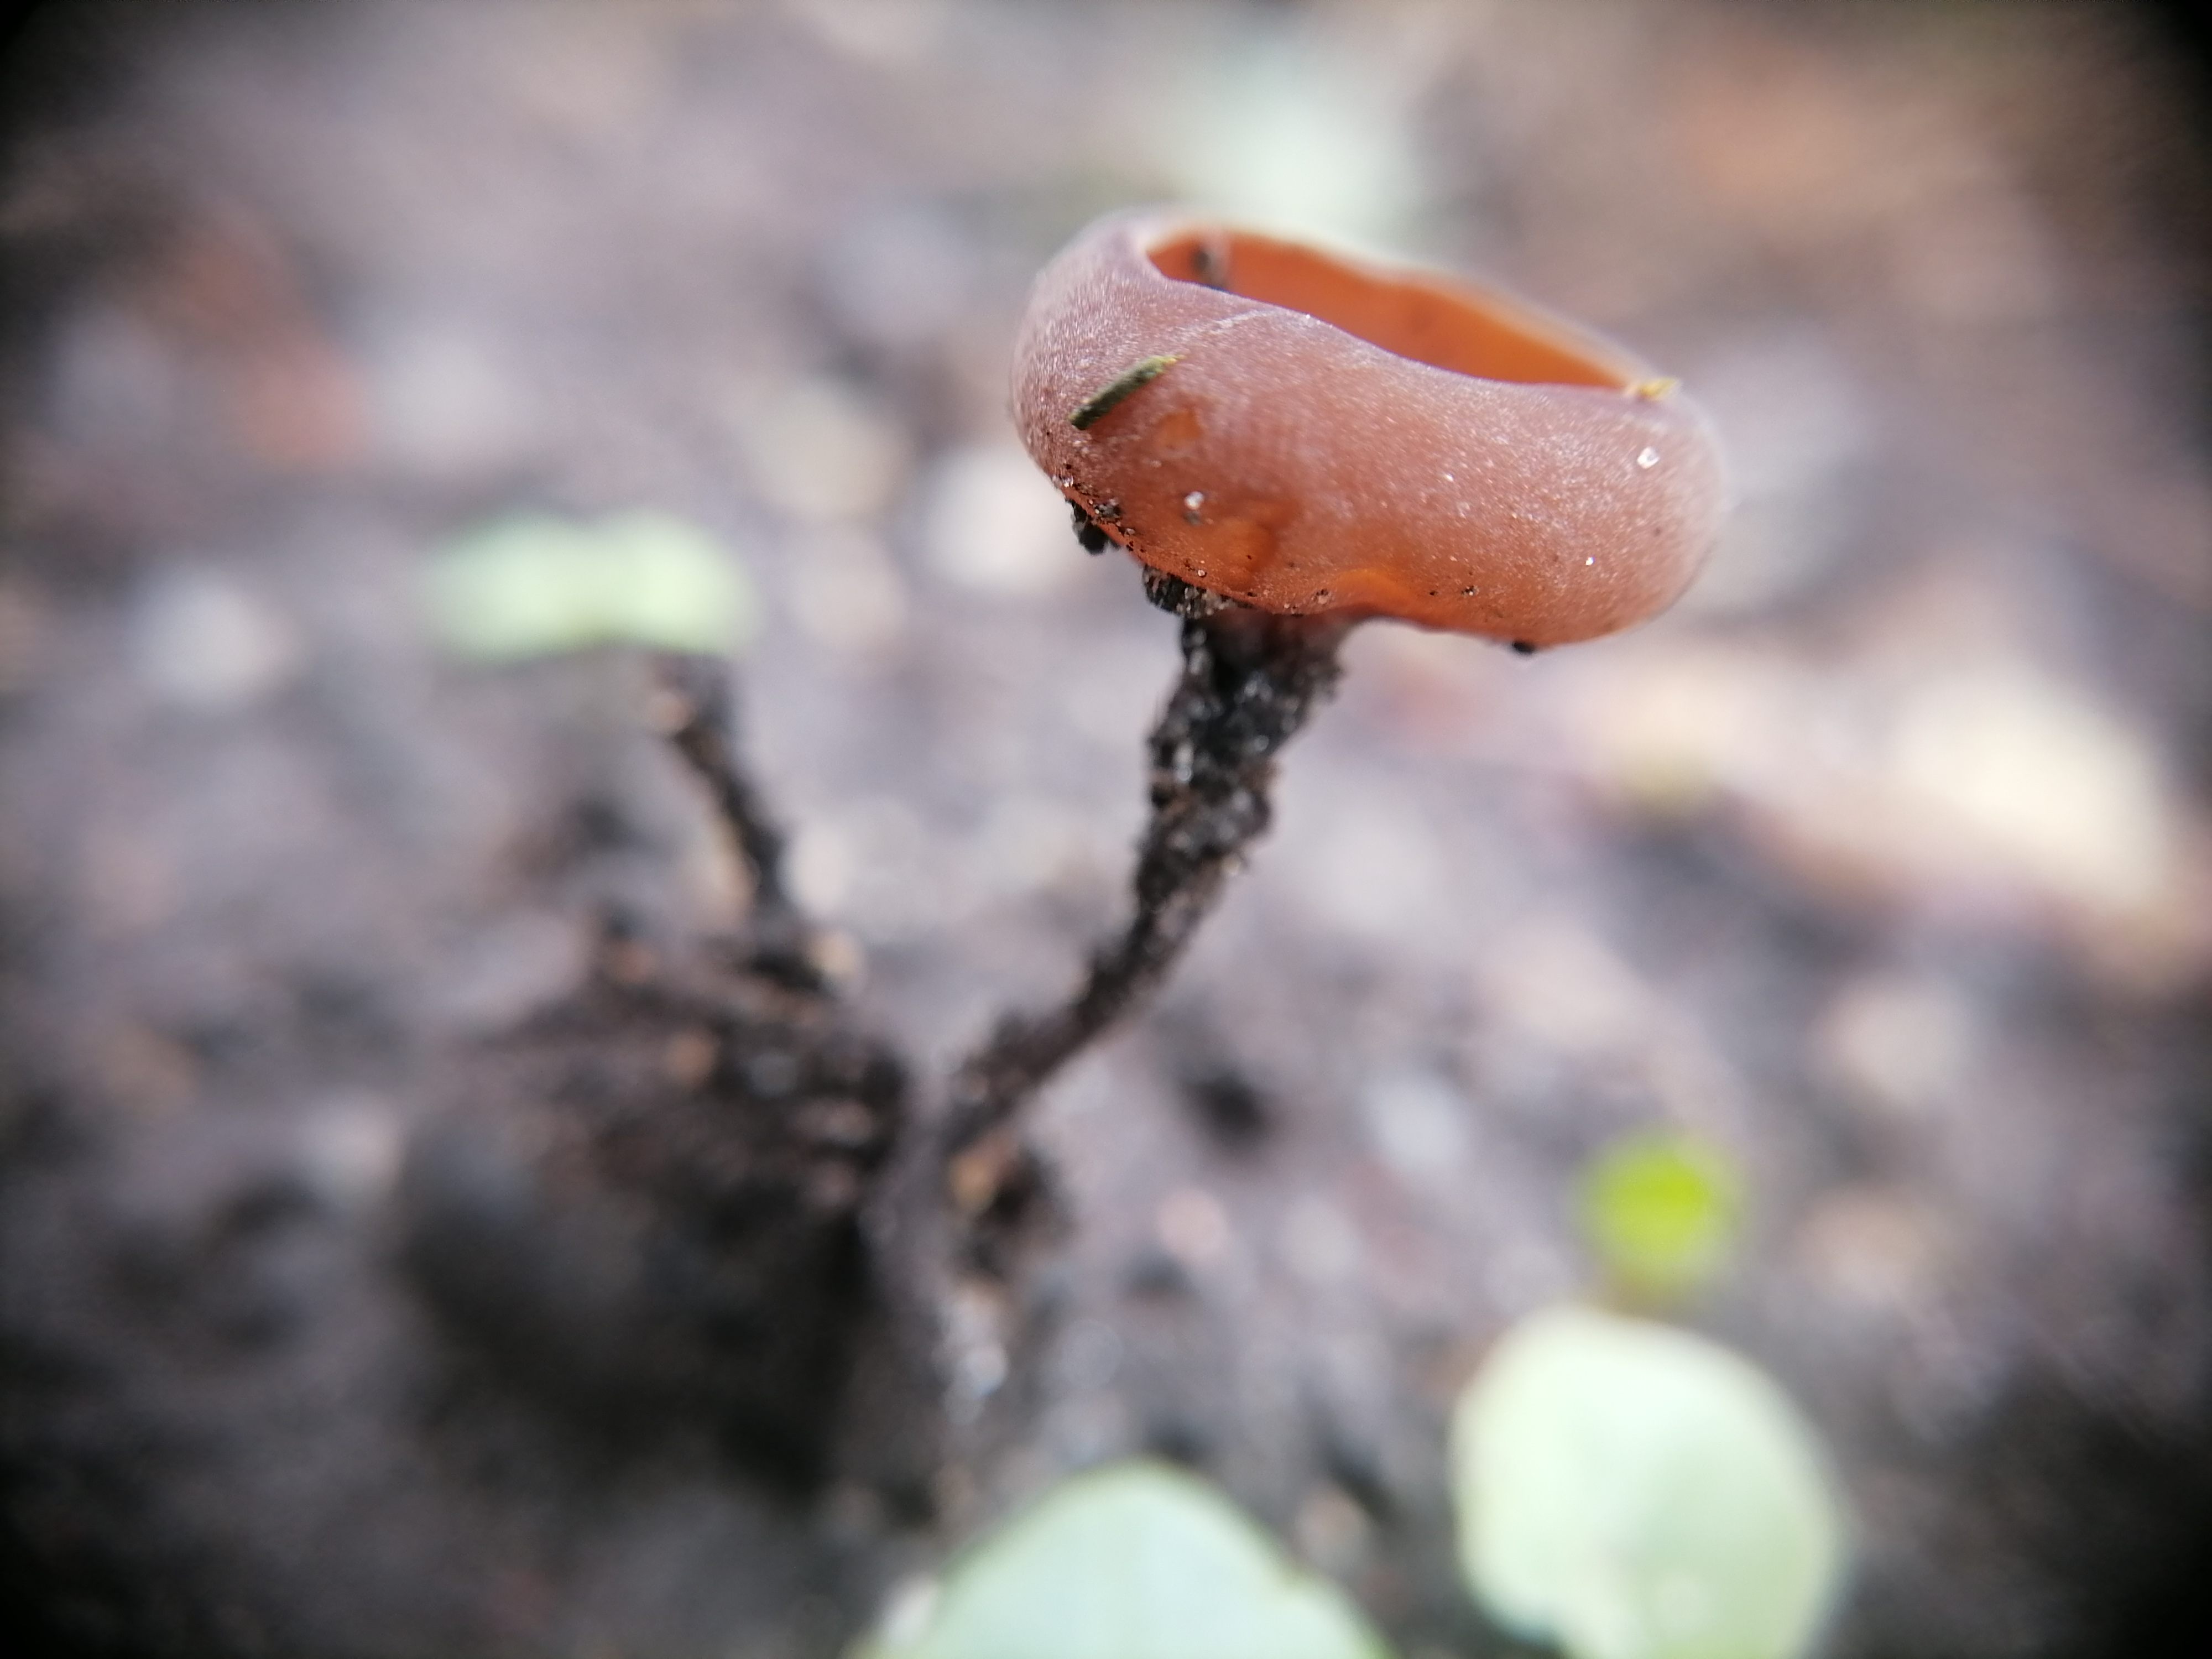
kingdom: Fungi
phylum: Ascomycota
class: Leotiomycetes
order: Helotiales
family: Sclerotiniaceae
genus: Dumontinia
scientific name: Dumontinia tuberosa
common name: anemone-knoldskive
